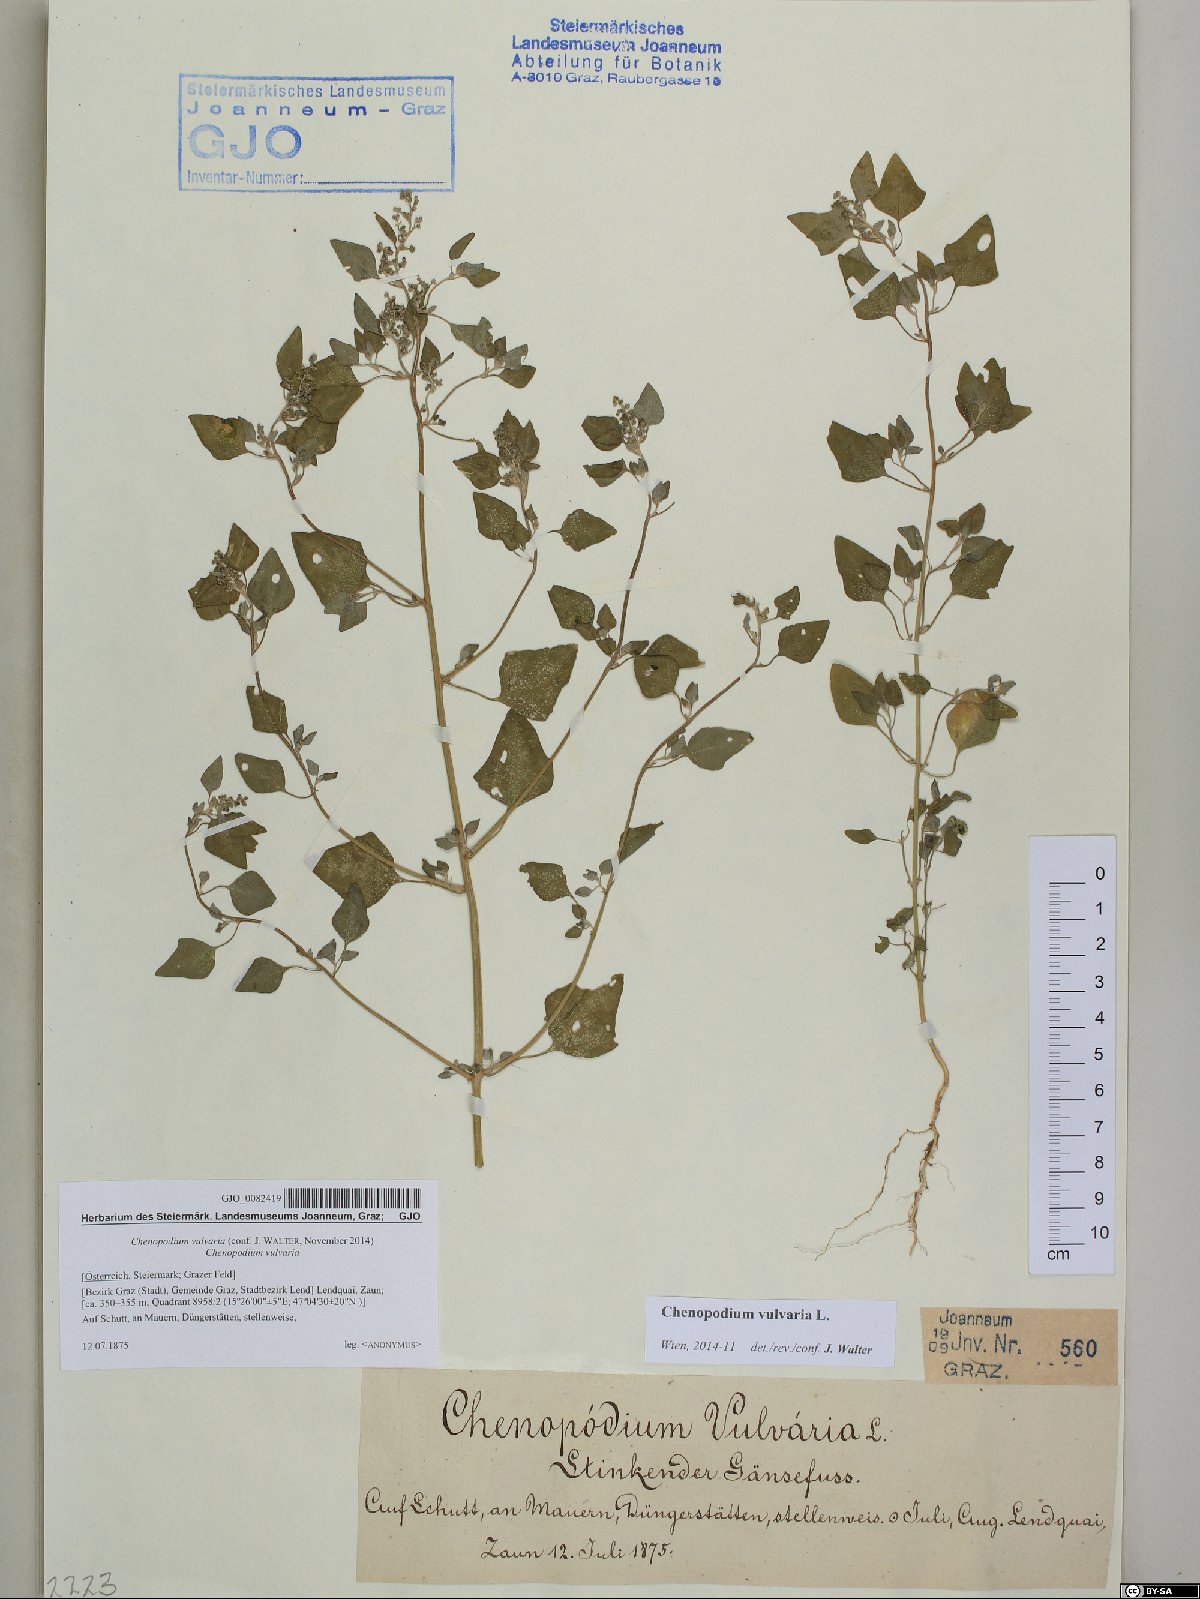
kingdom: Plantae
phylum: Tracheophyta
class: Magnoliopsida
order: Caryophyllales
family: Amaranthaceae
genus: Chenopodium
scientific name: Chenopodium vulvaria
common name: Stinking goosefoot
